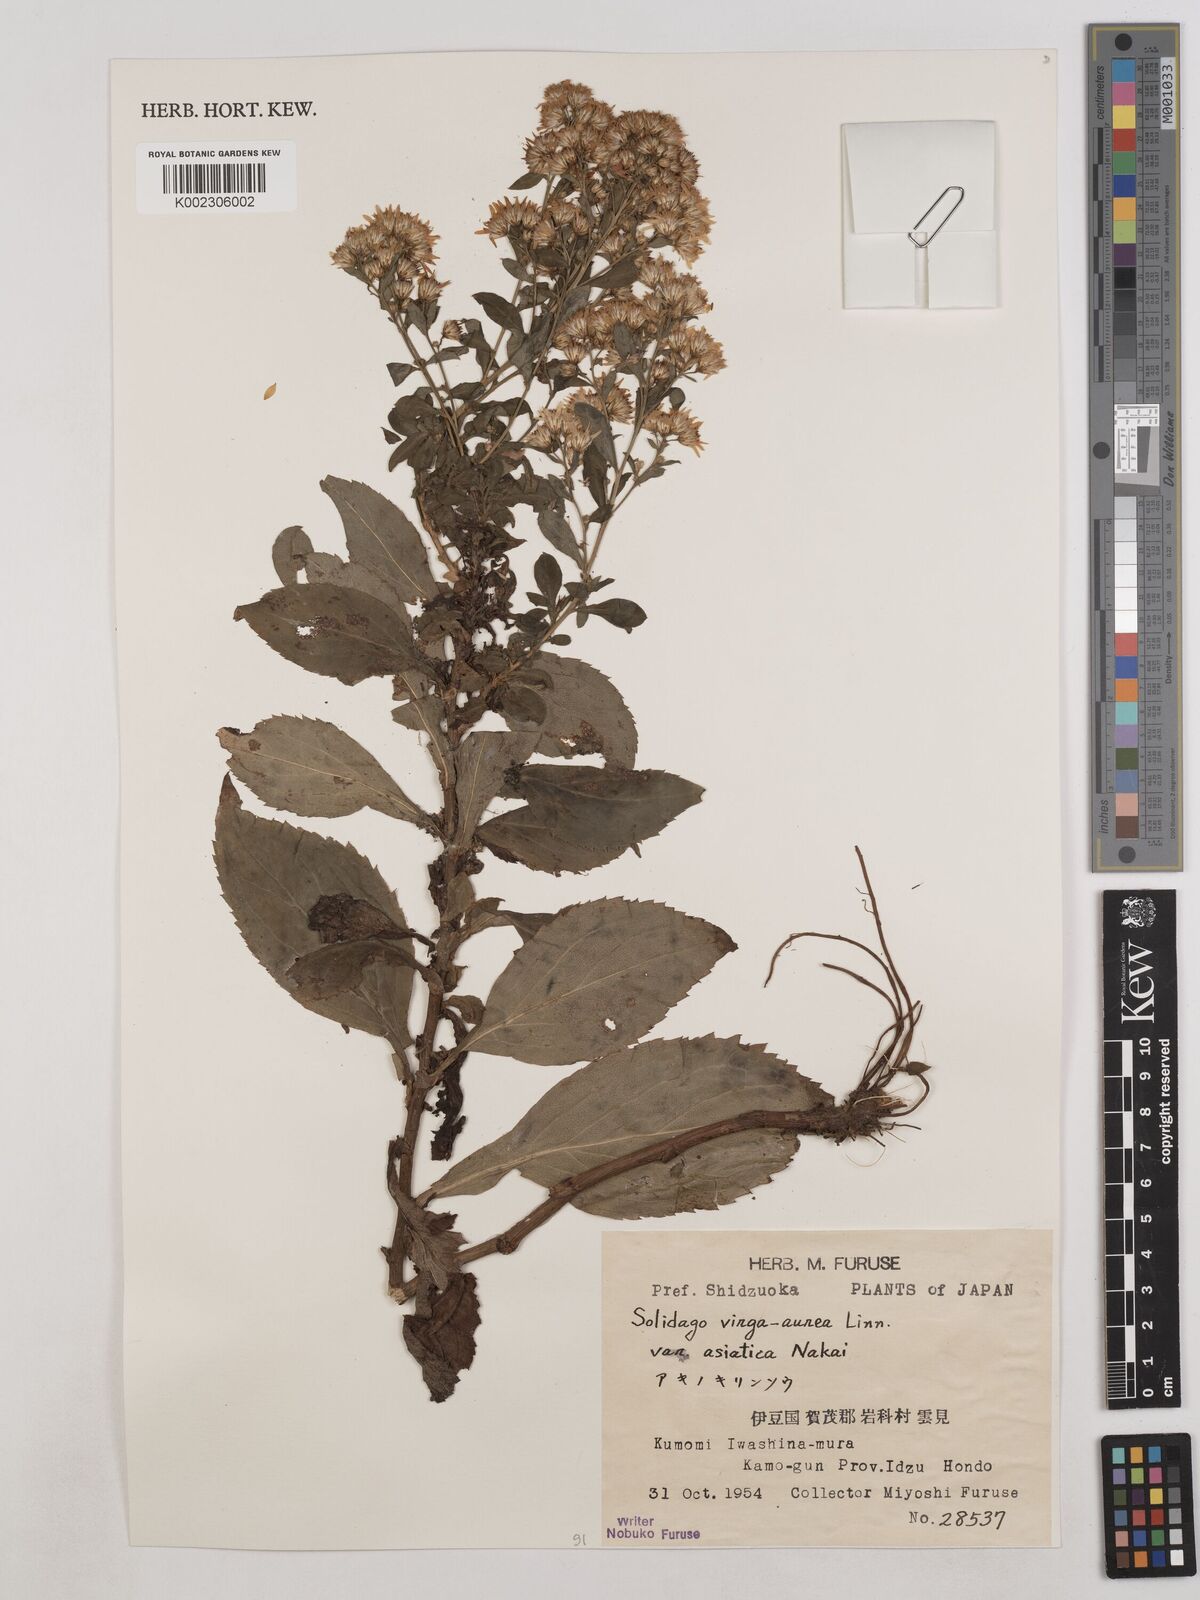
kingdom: Plantae
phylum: Tracheophyta
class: Magnoliopsida
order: Asterales
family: Asteraceae
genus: Solidago
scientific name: Solidago virgaurea
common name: Goldenrod
